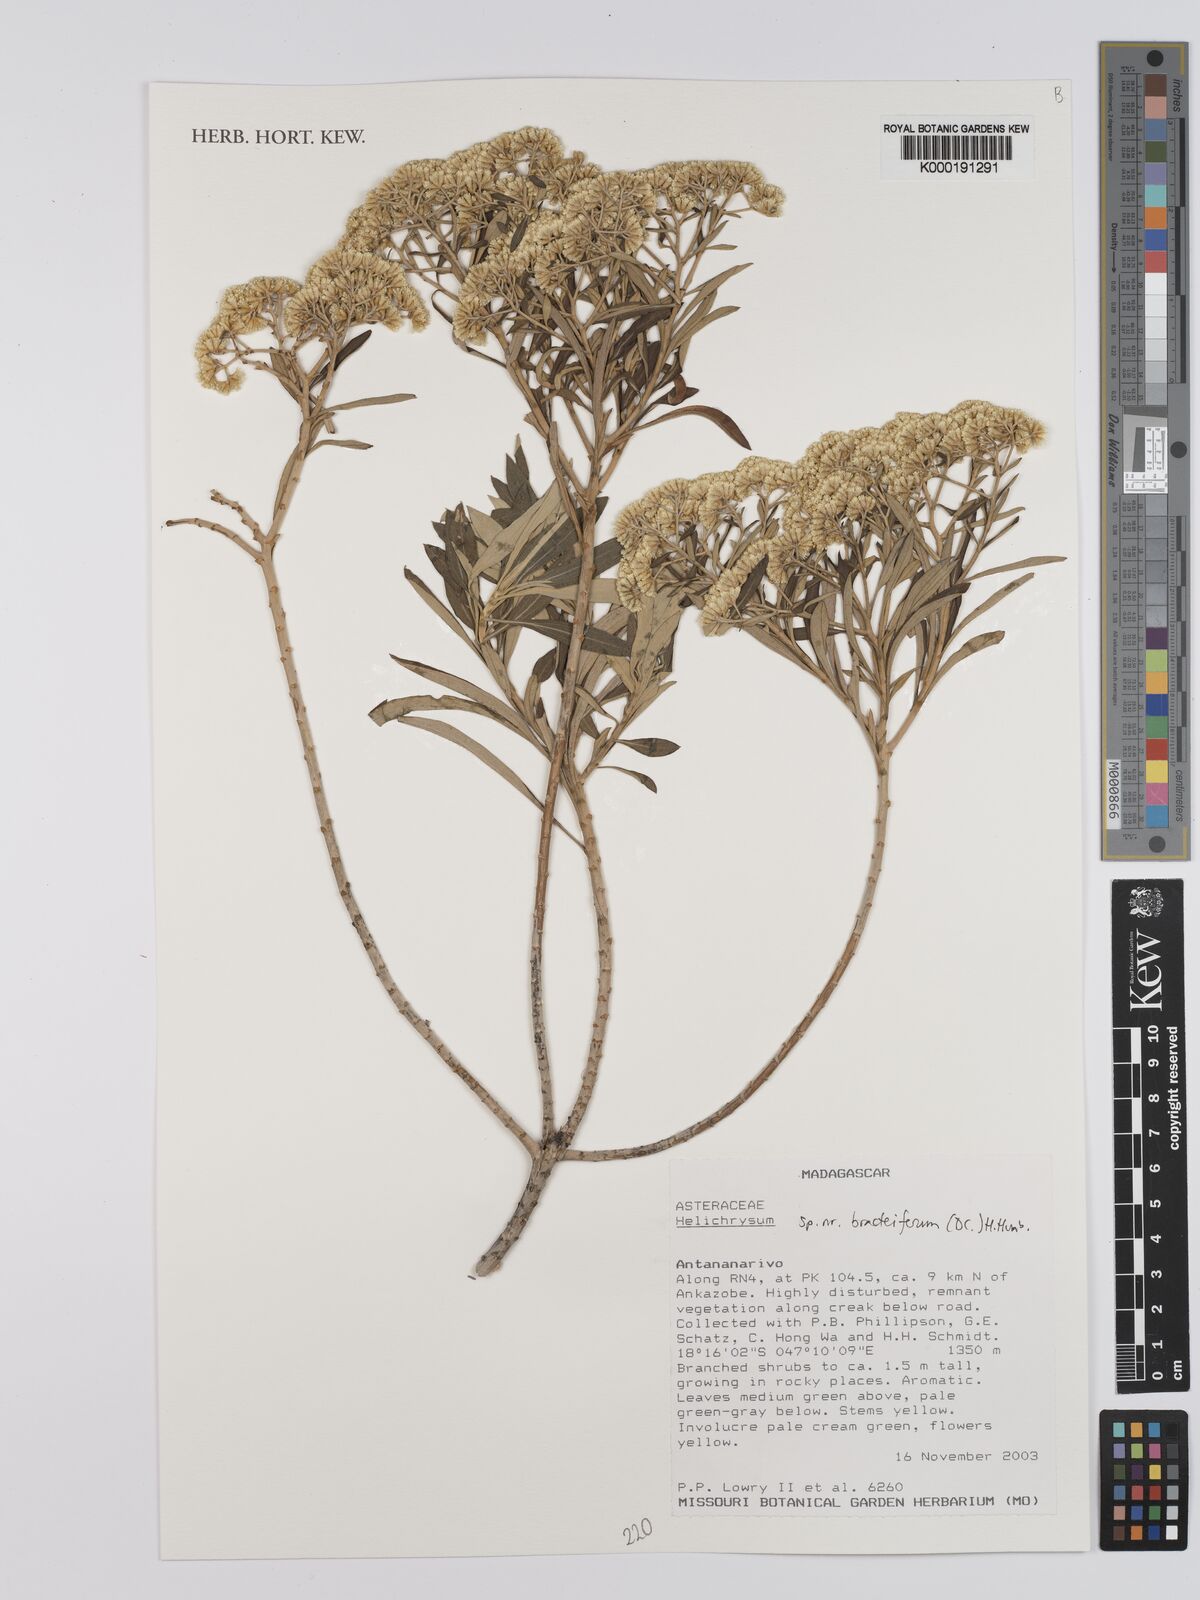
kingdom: Plantae
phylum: Tracheophyta
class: Magnoliopsida
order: Asterales
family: Asteraceae
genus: Helichrysum
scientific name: Helichrysum
